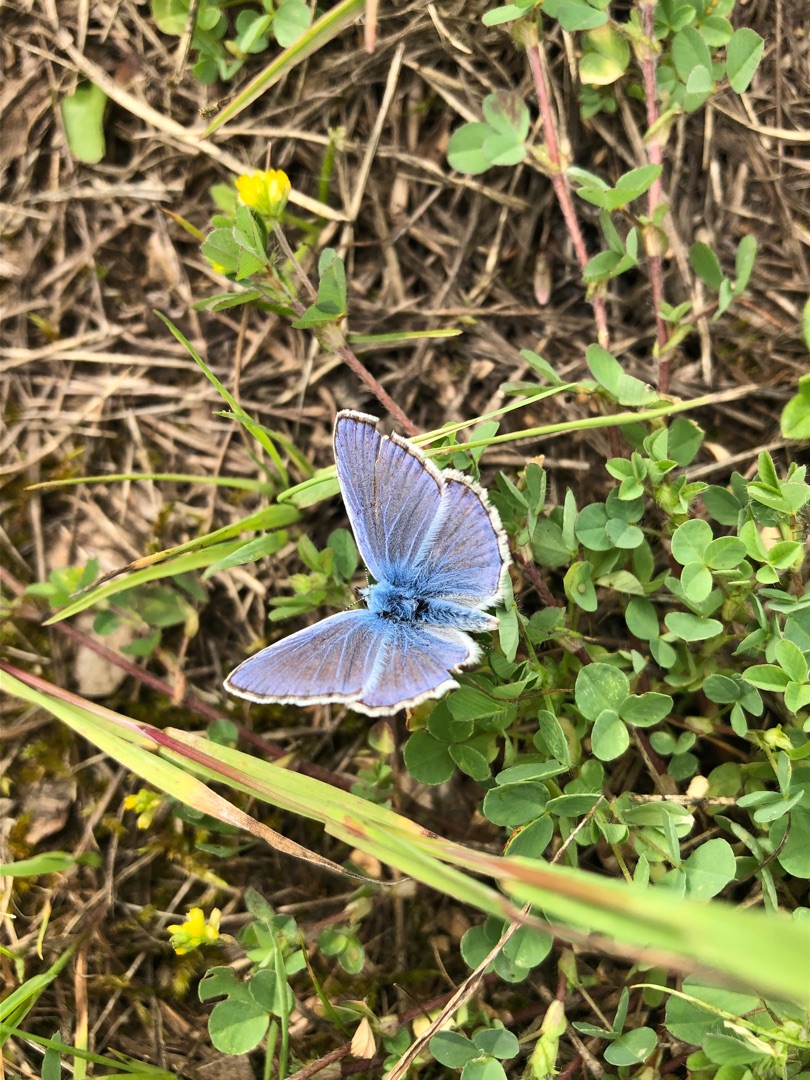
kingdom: Animalia
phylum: Arthropoda
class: Insecta
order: Lepidoptera
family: Lycaenidae
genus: Polyommatus
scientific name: Polyommatus icarus
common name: Almindelig blåfugl
